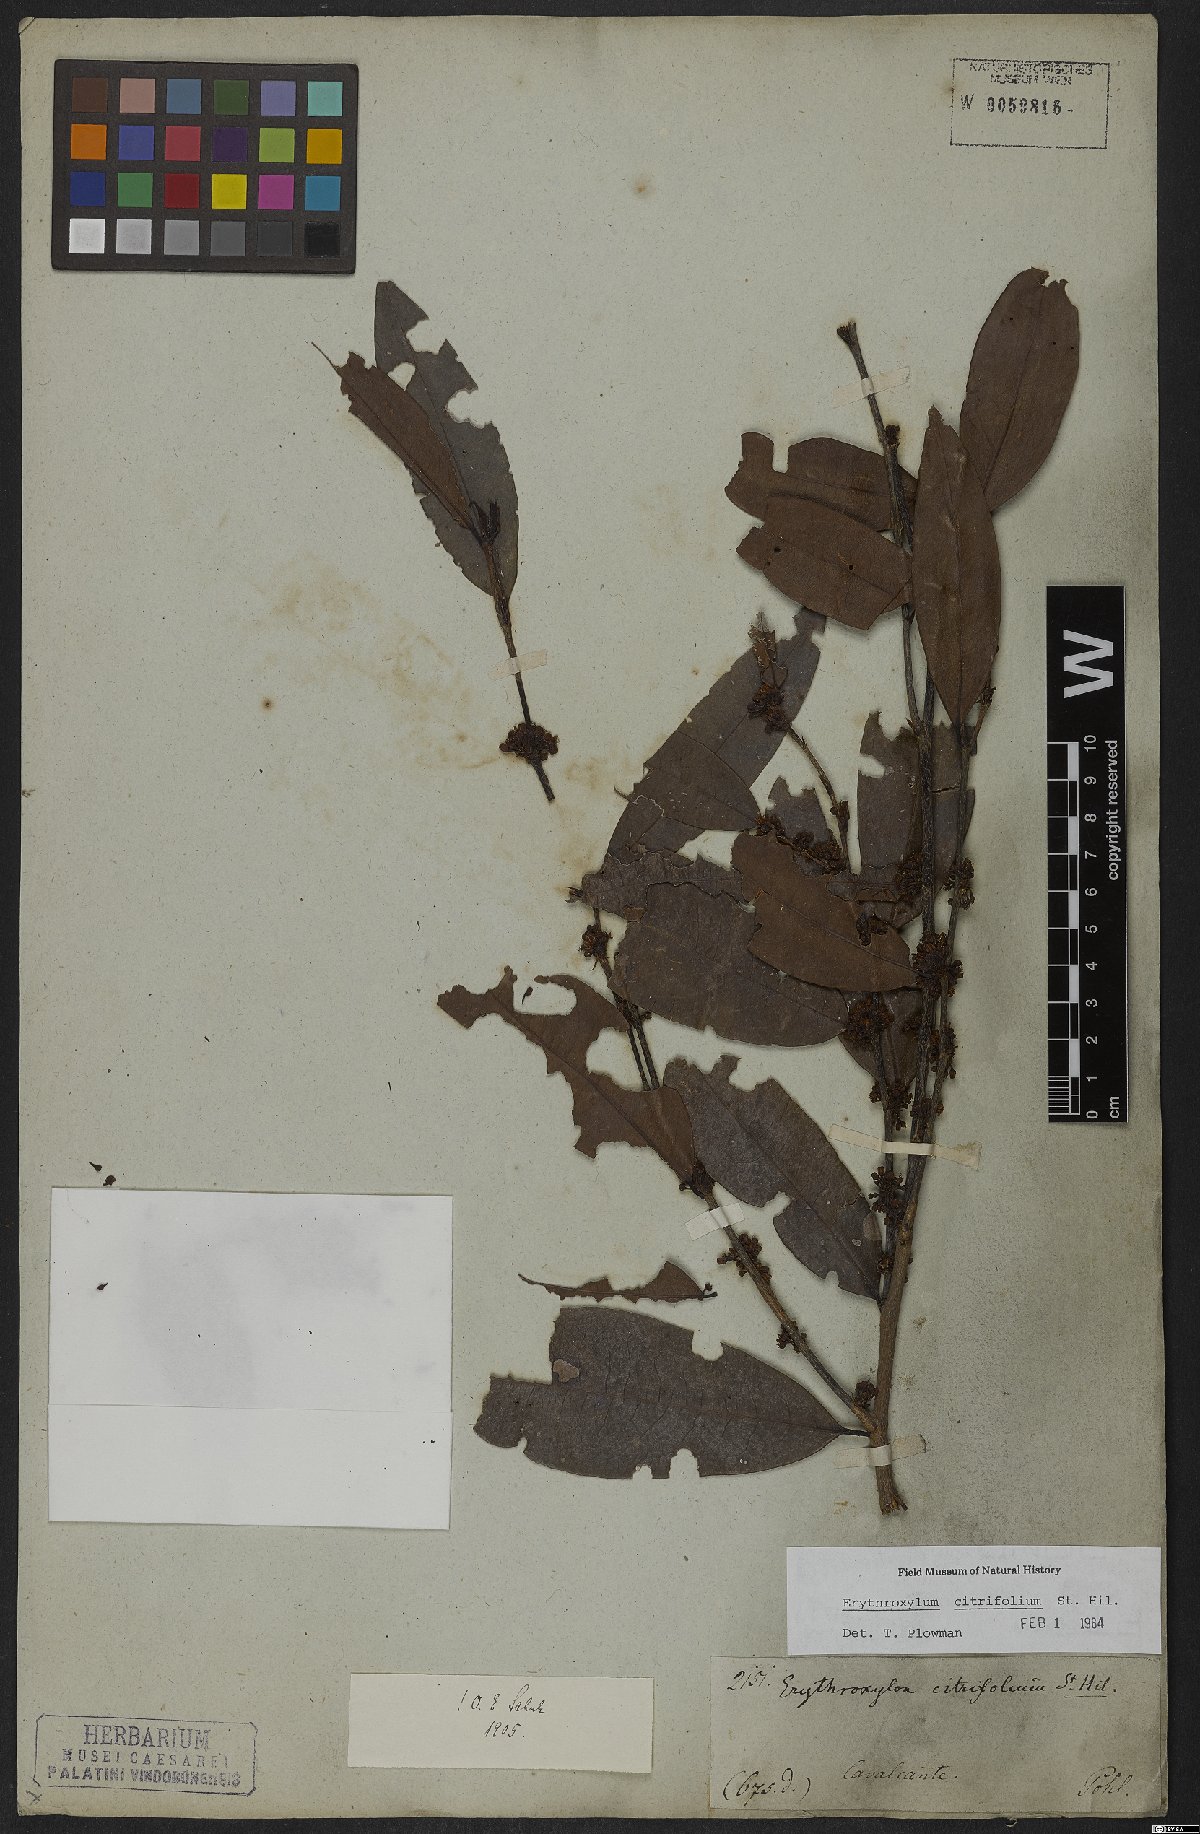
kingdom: Plantae
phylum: Tracheophyta
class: Magnoliopsida
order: Malpighiales
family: Erythroxylaceae
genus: Erythroxylum
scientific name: Erythroxylum citrifolium
